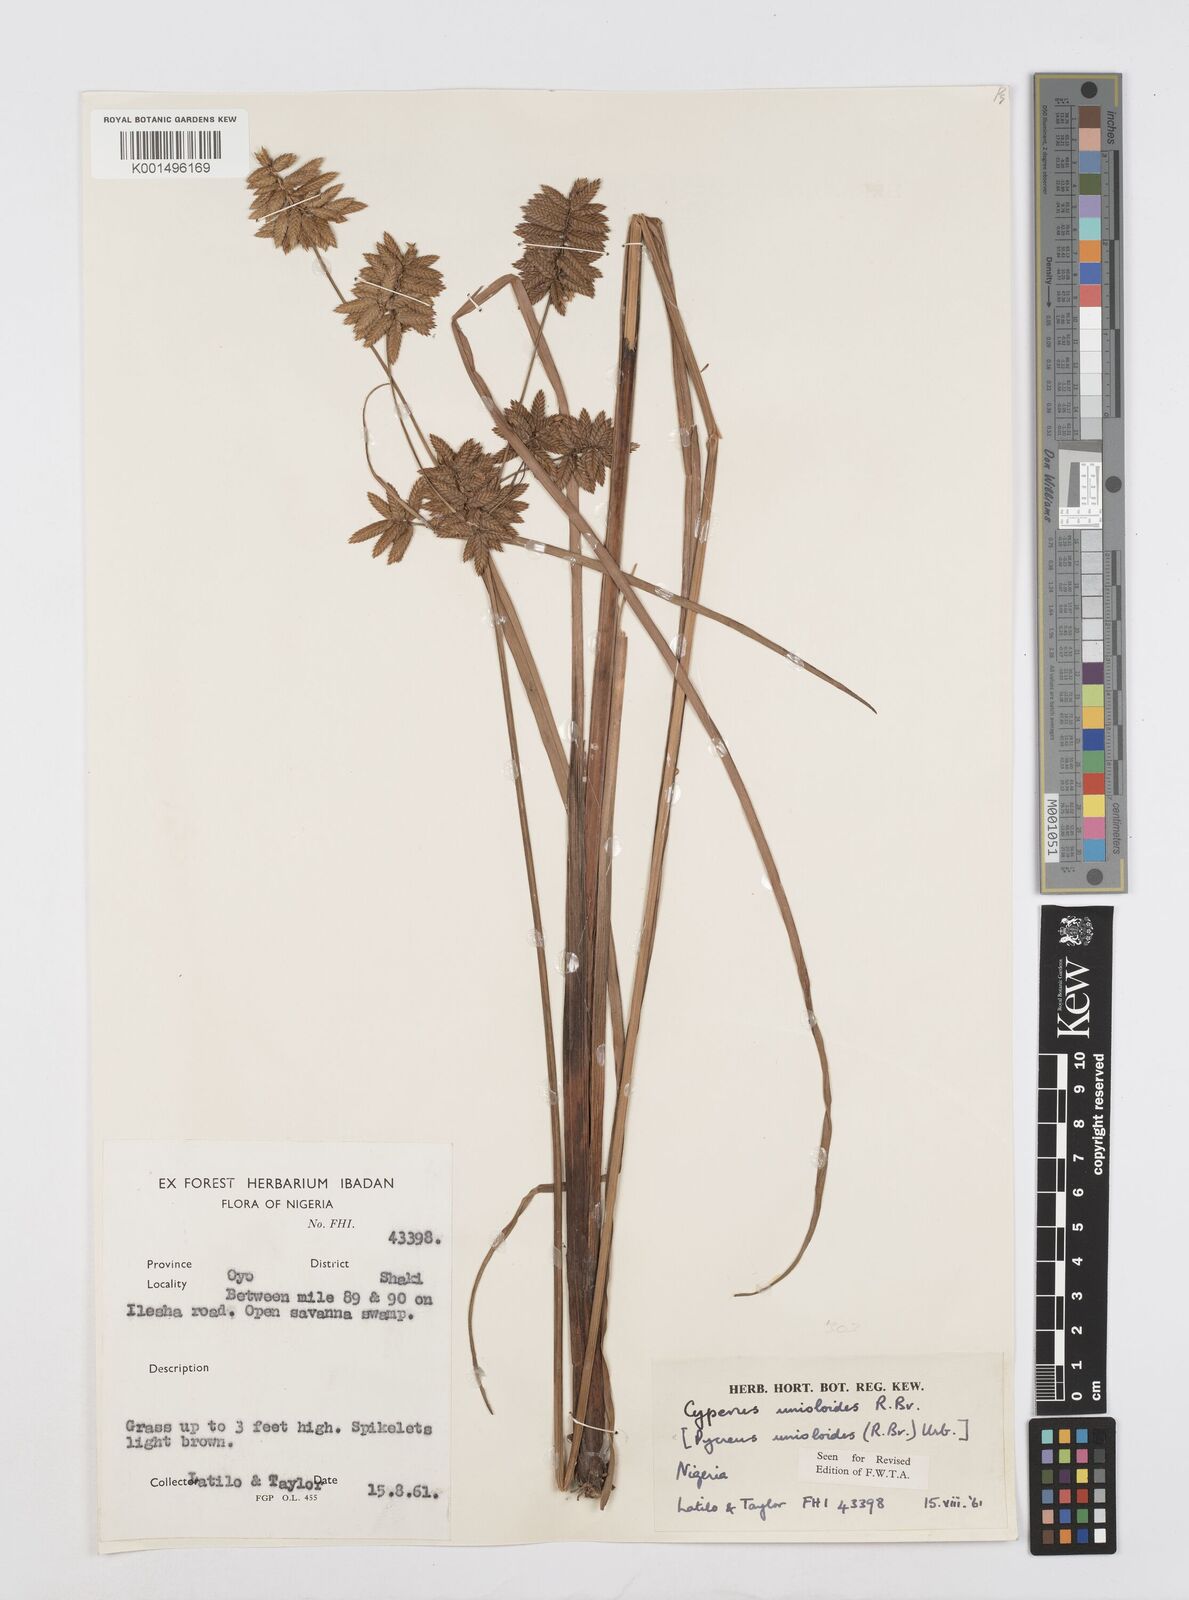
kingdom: Plantae
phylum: Tracheophyta
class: Liliopsida
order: Poales
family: Cyperaceae
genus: Cyperus
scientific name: Cyperus unioloides
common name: Uniola flatsedge
